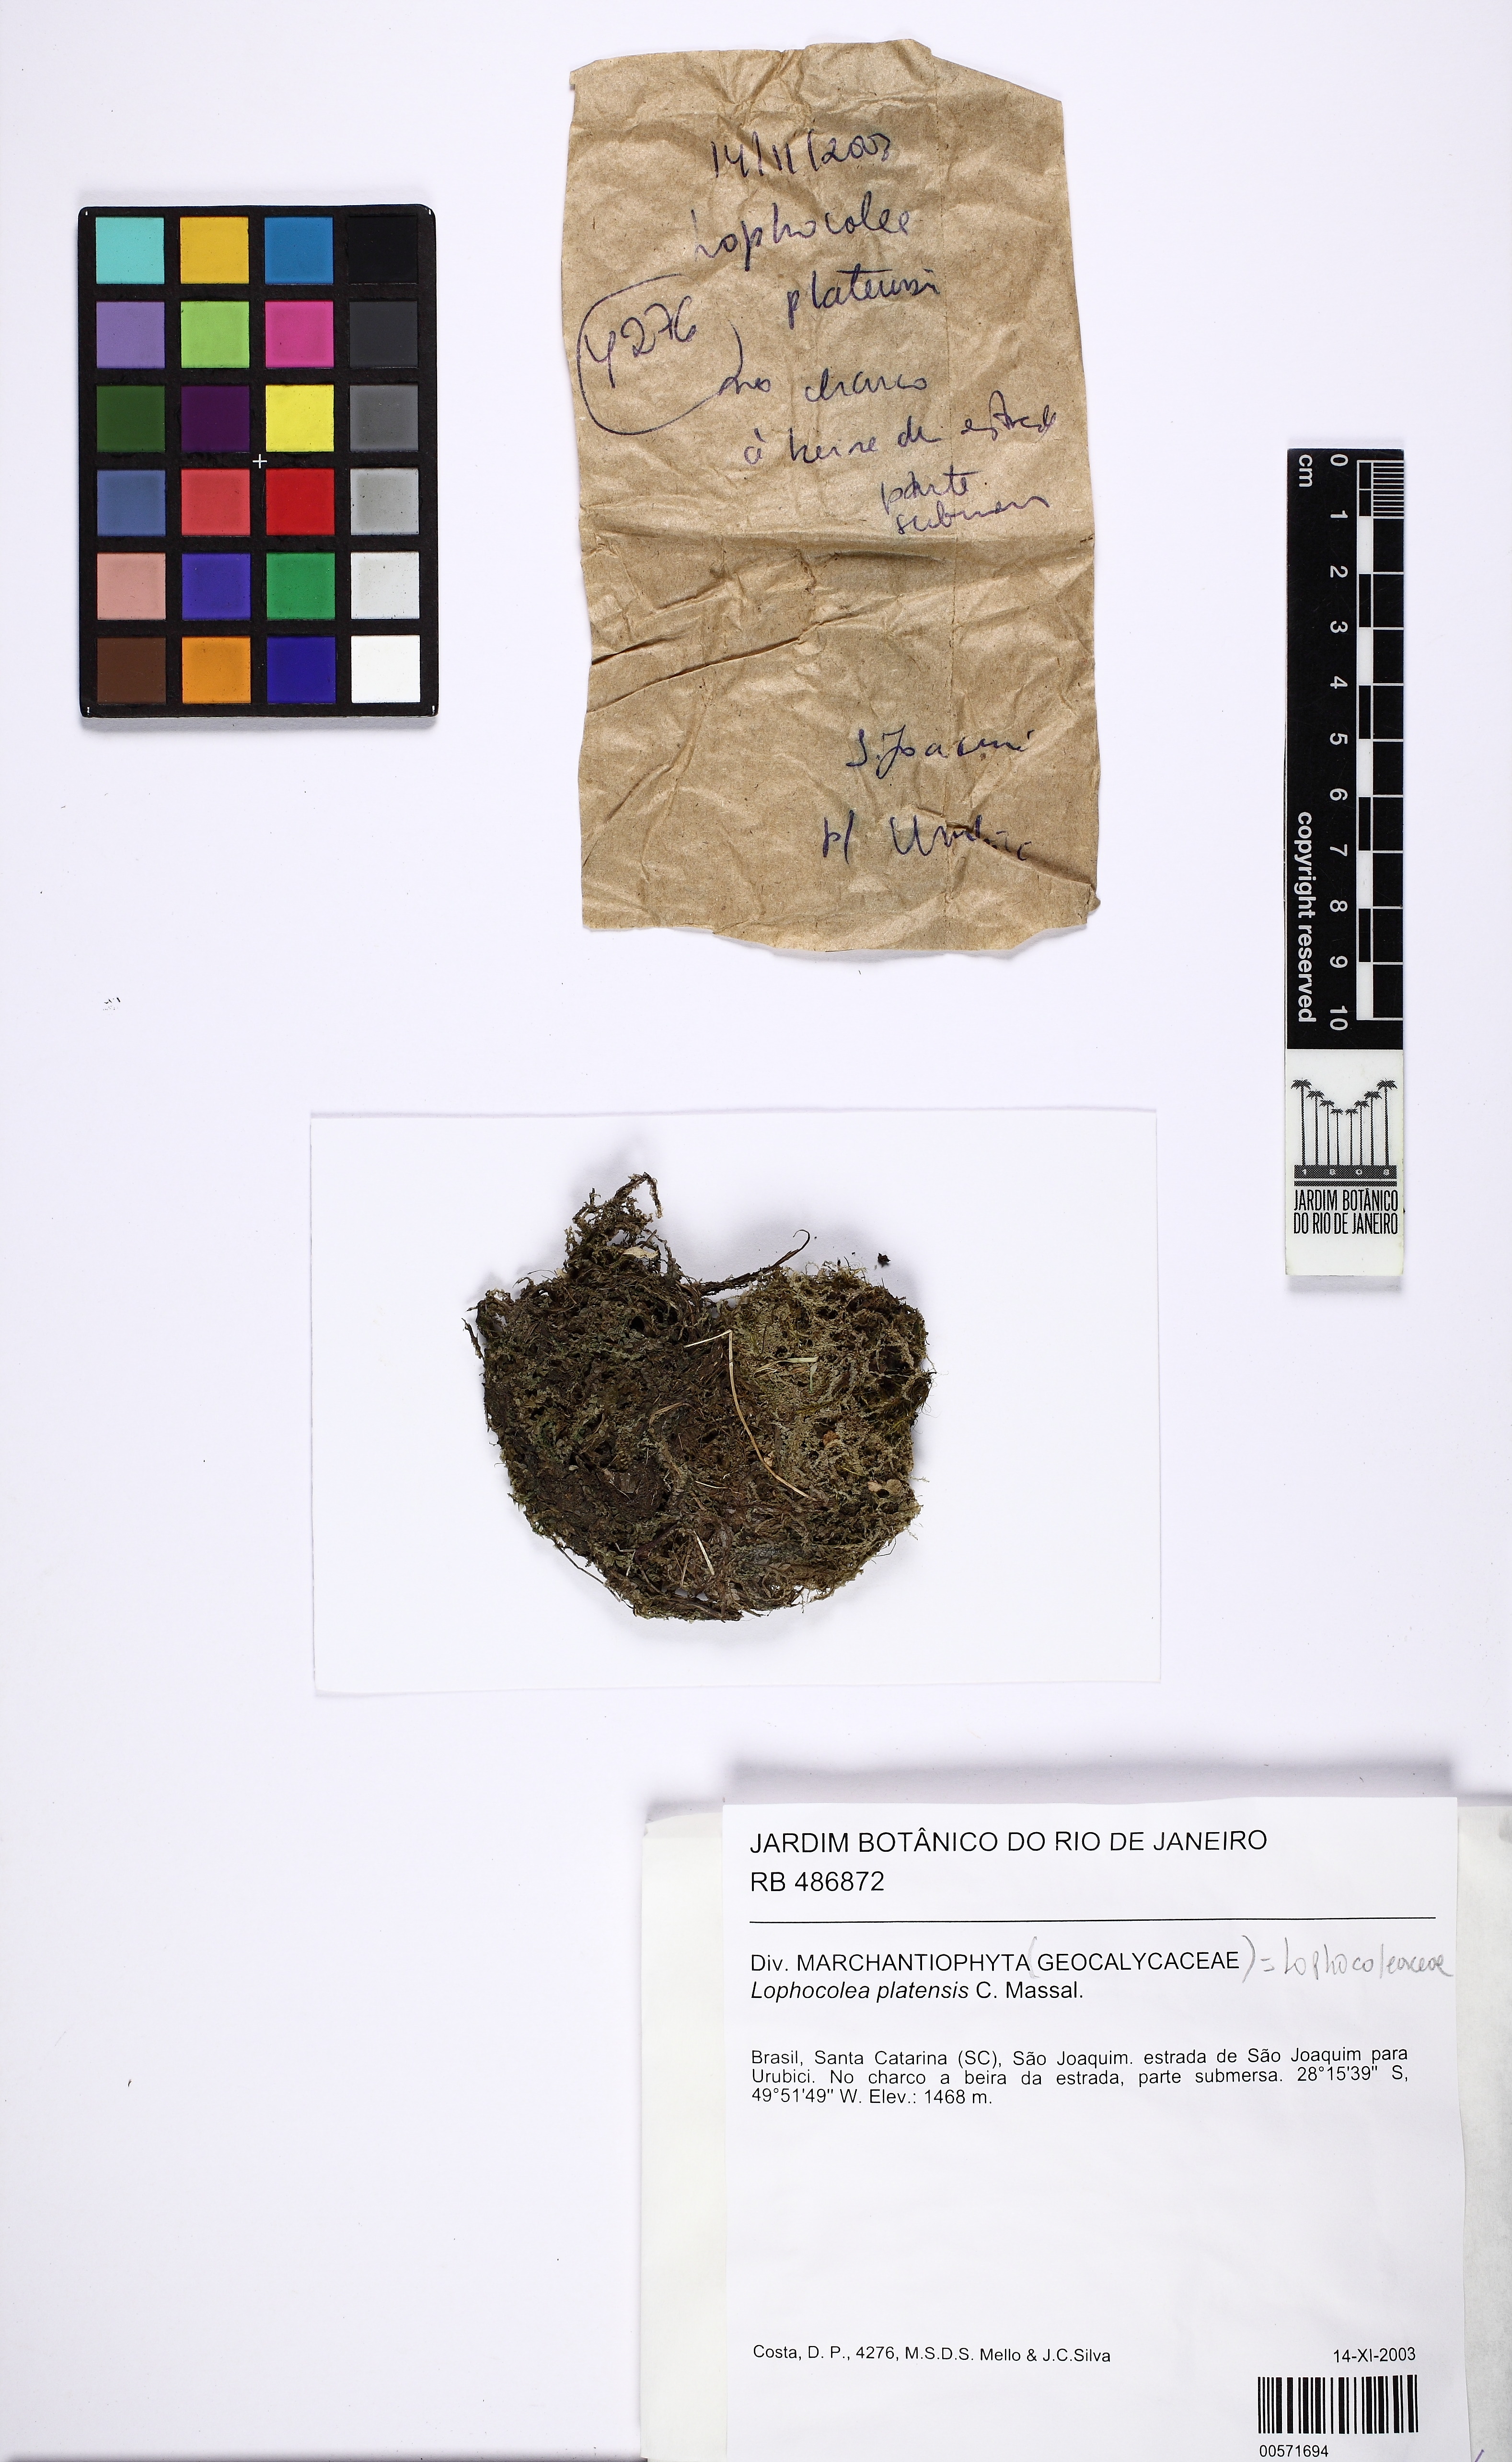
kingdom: Plantae
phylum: Marchantiophyta
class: Jungermanniopsida
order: Jungermanniales
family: Lophocoleaceae
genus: Lophocolea
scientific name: Lophocolea platensis
